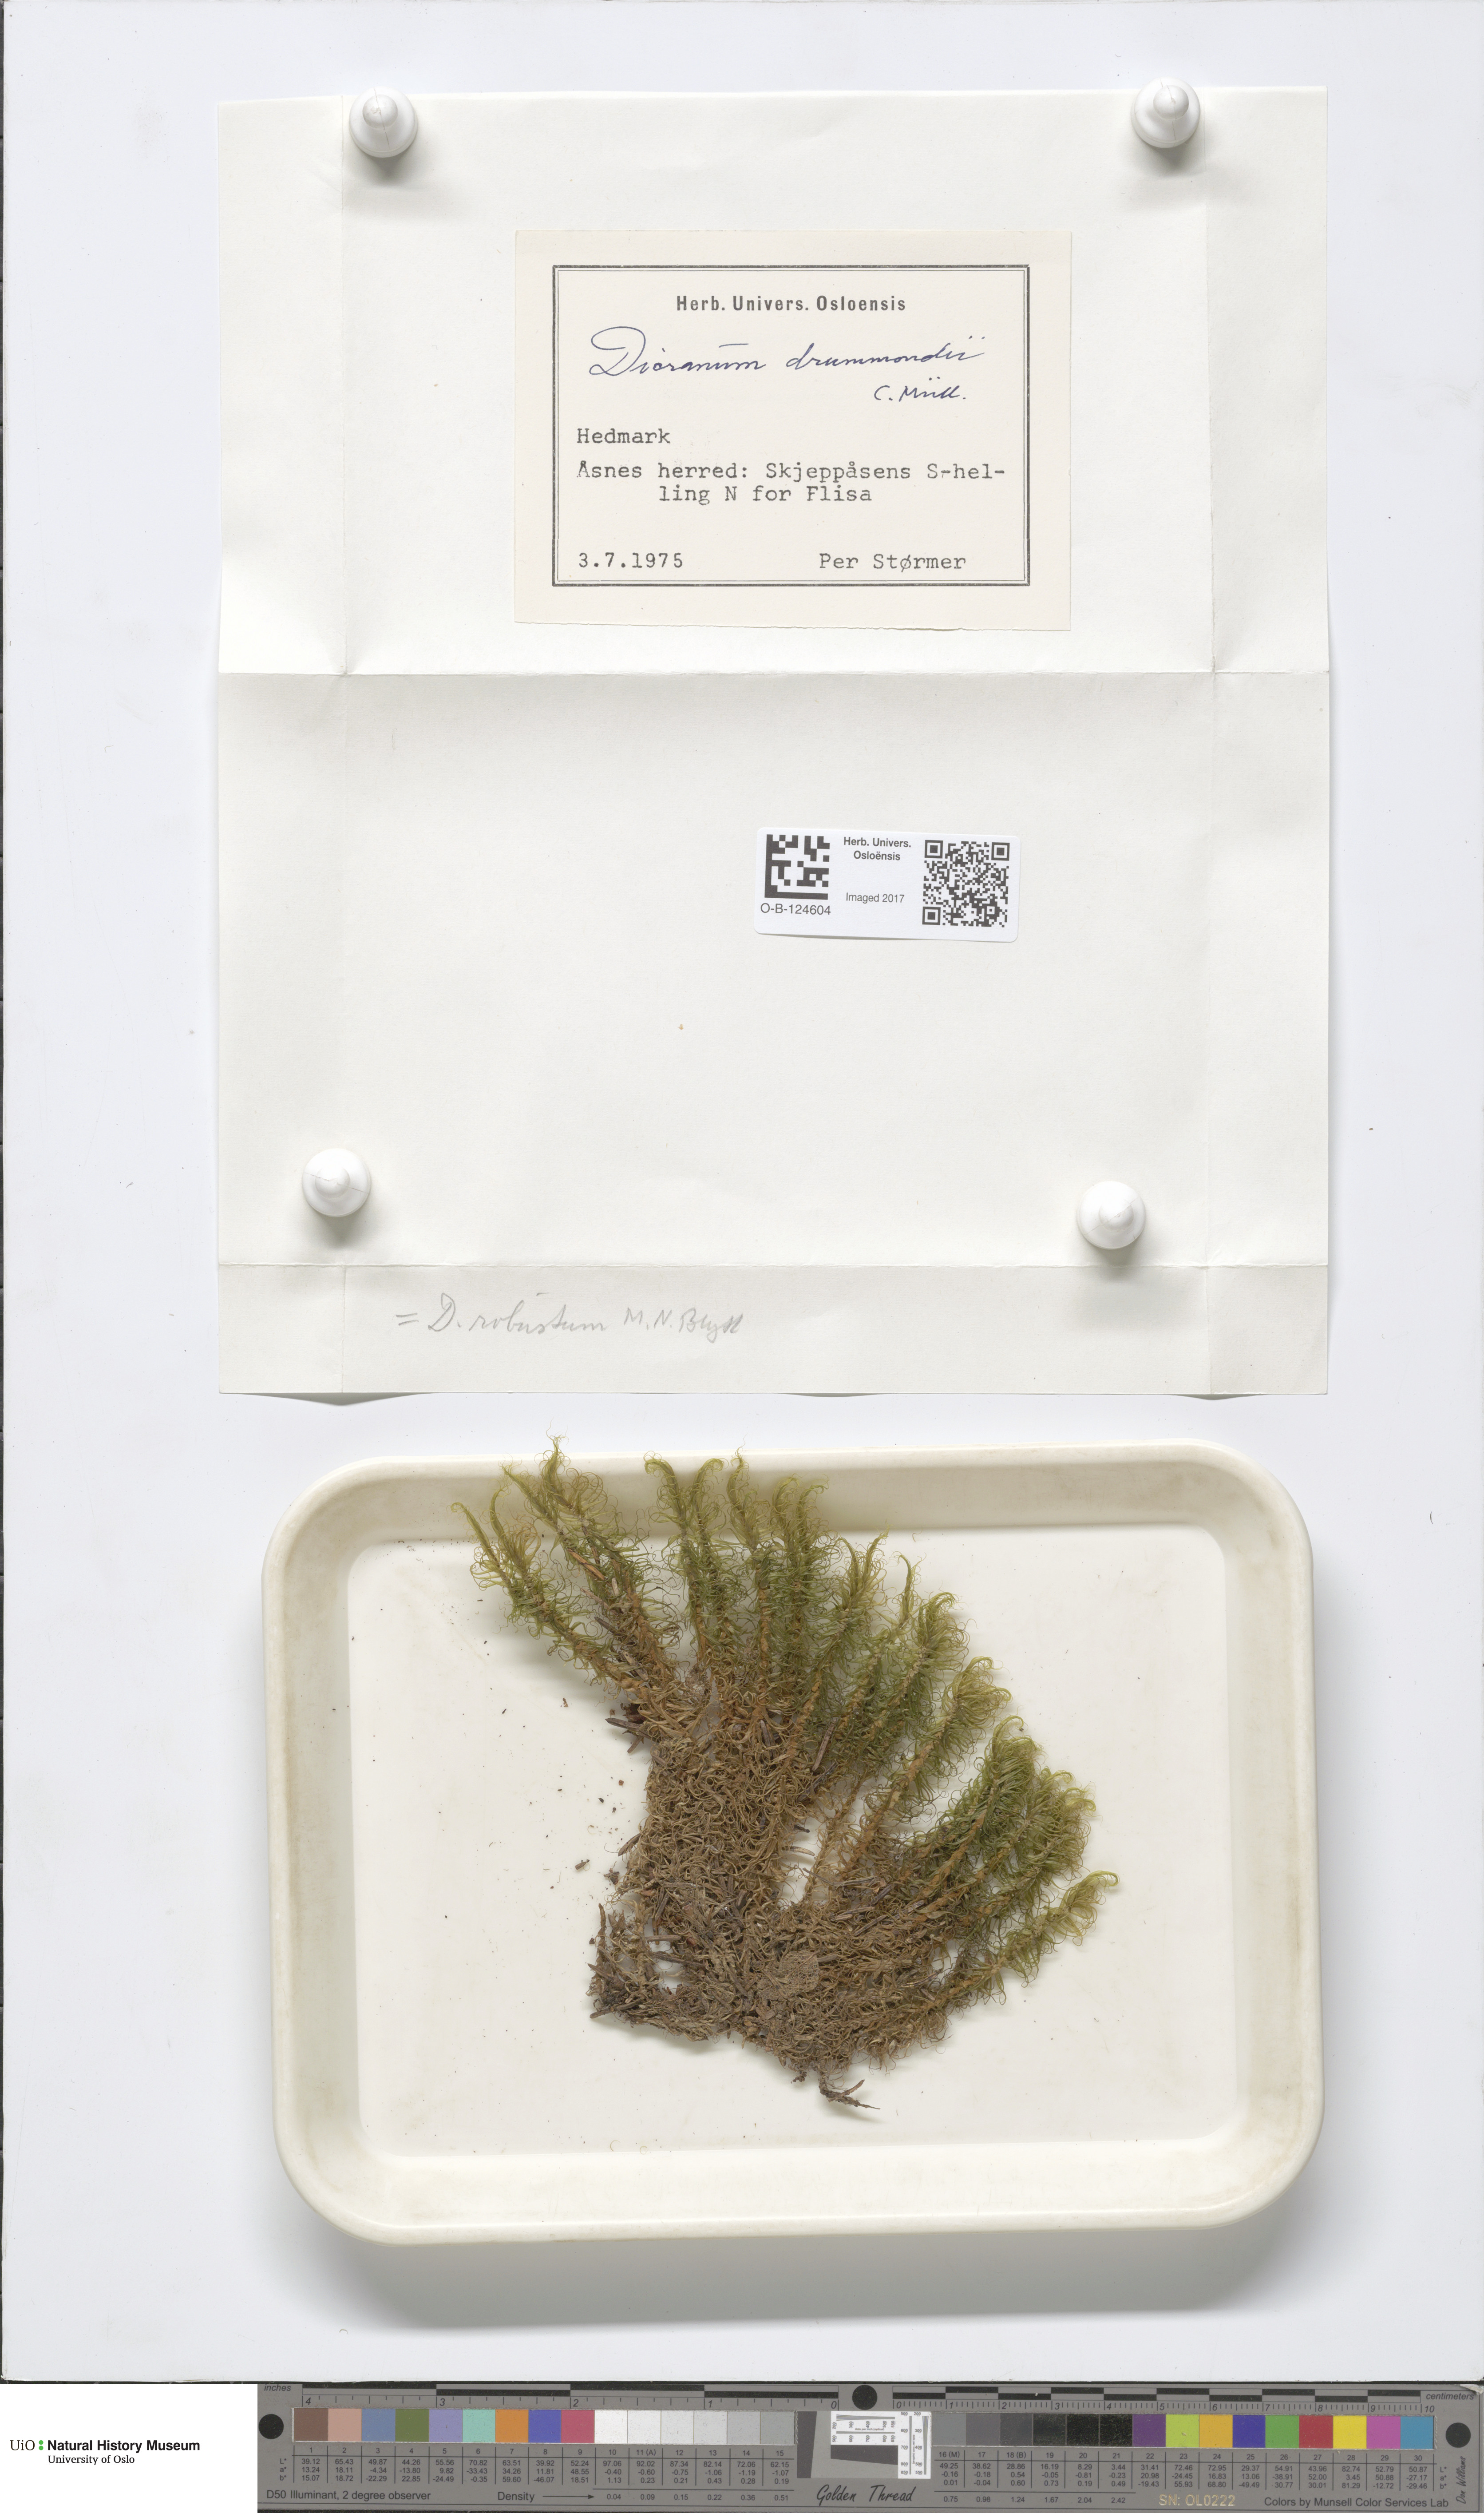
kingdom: Plantae
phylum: Bryophyta
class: Bryopsida
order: Dicranales
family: Dicranaceae
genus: Dicranum
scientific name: Dicranum drummondii
